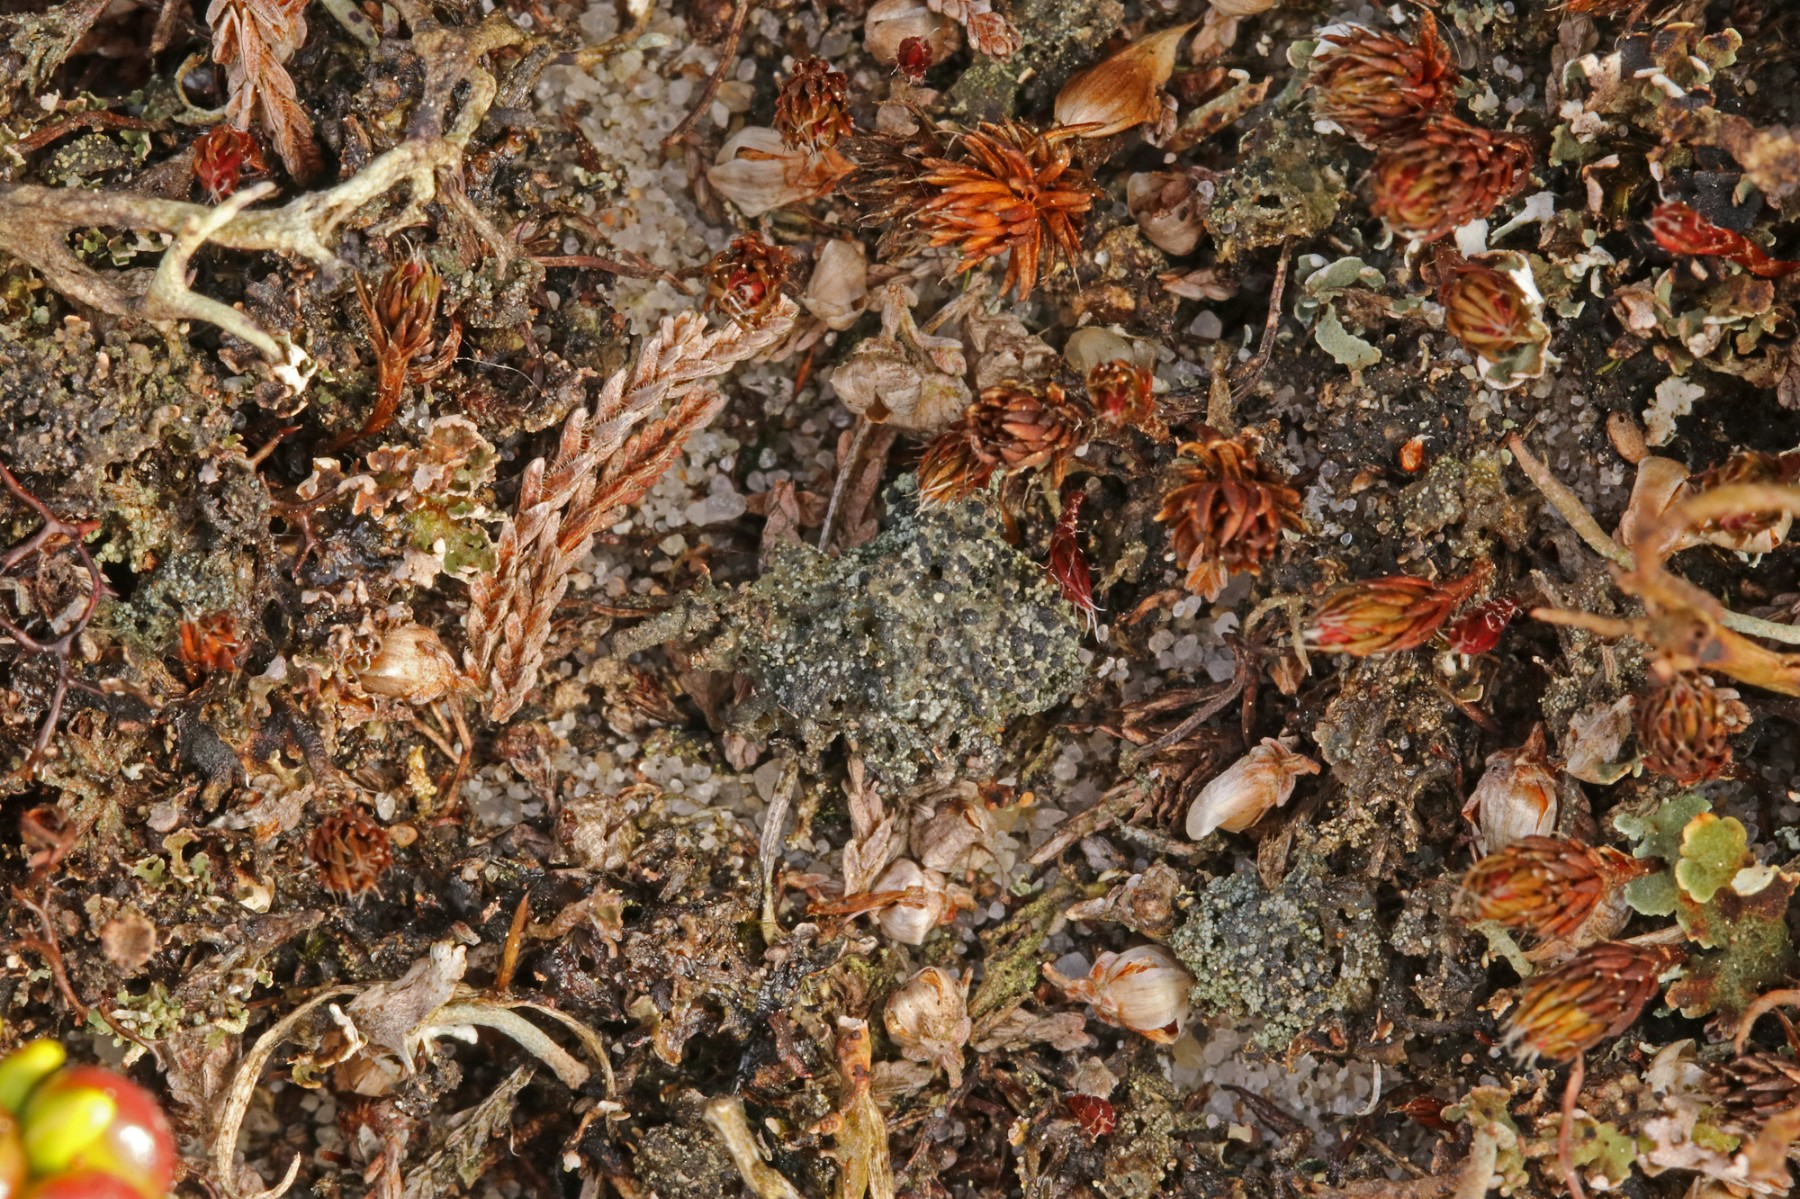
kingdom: Fungi
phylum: Ascomycota
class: Lecanoromycetes
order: Lecanorales
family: Byssolomataceae
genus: Micarea
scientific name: Micarea lignaria
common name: tørve-knaplav
